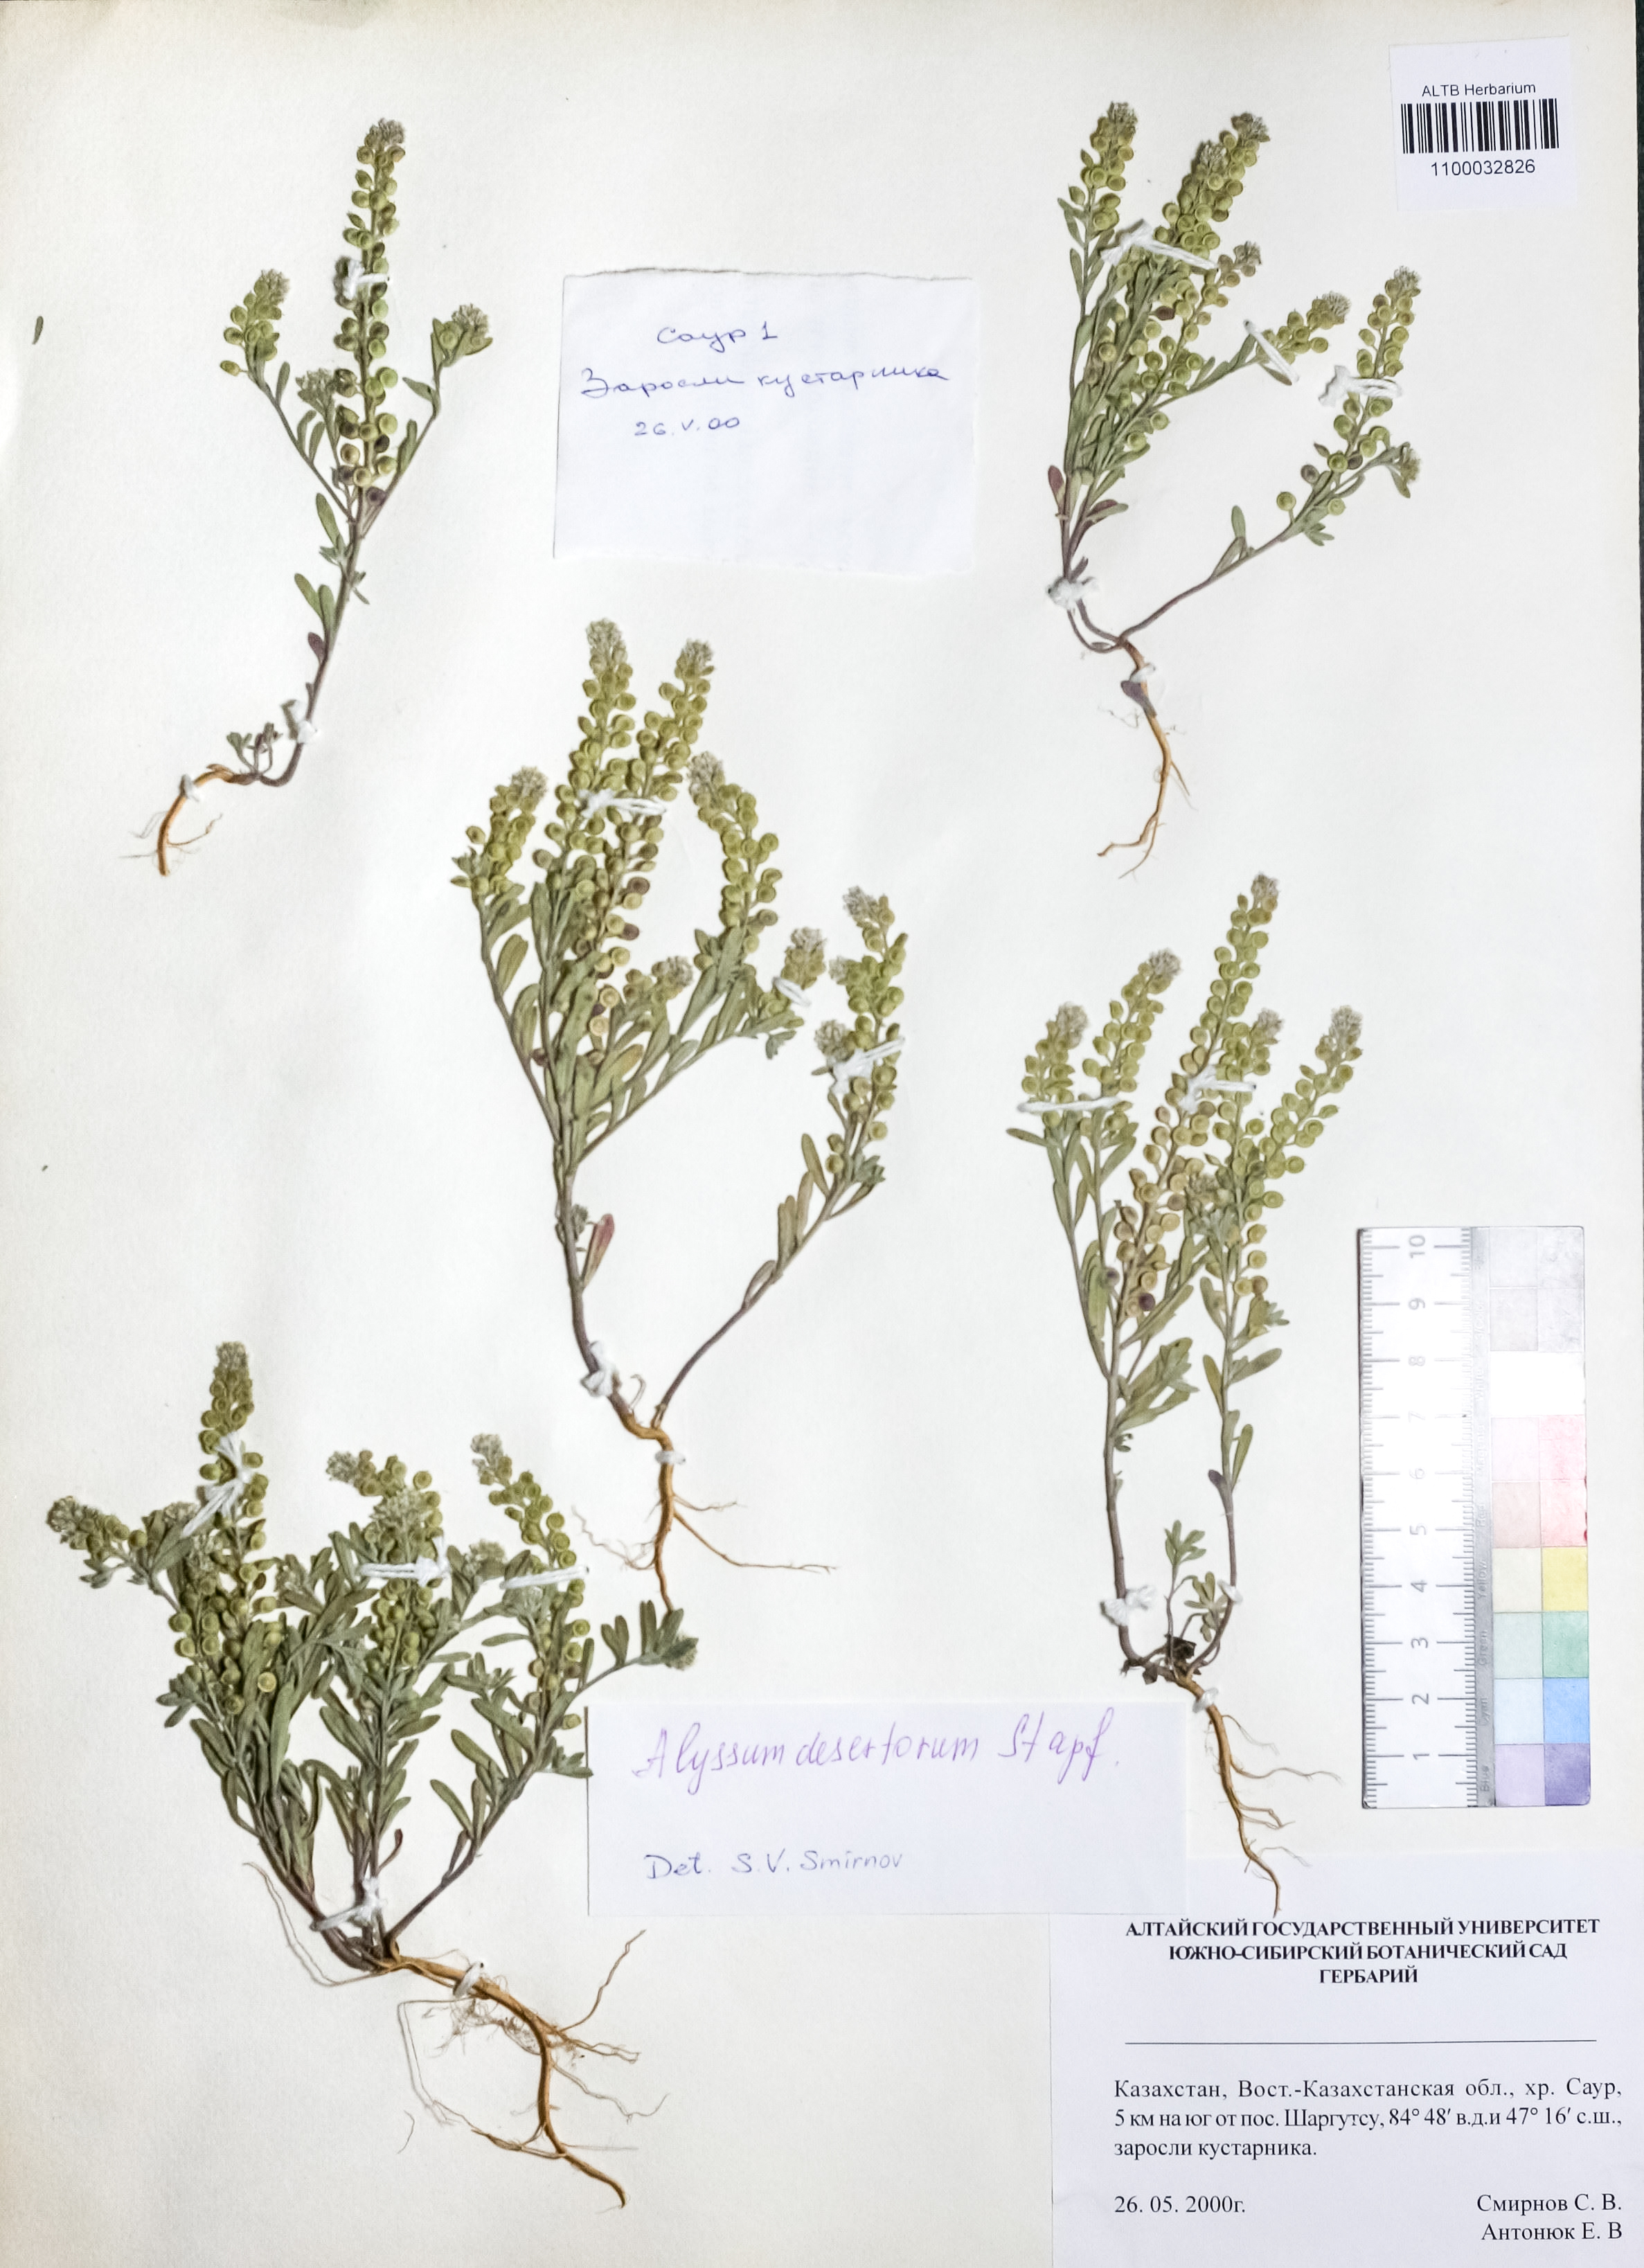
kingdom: Plantae
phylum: Tracheophyta
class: Magnoliopsida
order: Brassicales
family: Brassicaceae
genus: Alyssum
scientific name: Alyssum turkestanicum
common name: Desert alyssum
